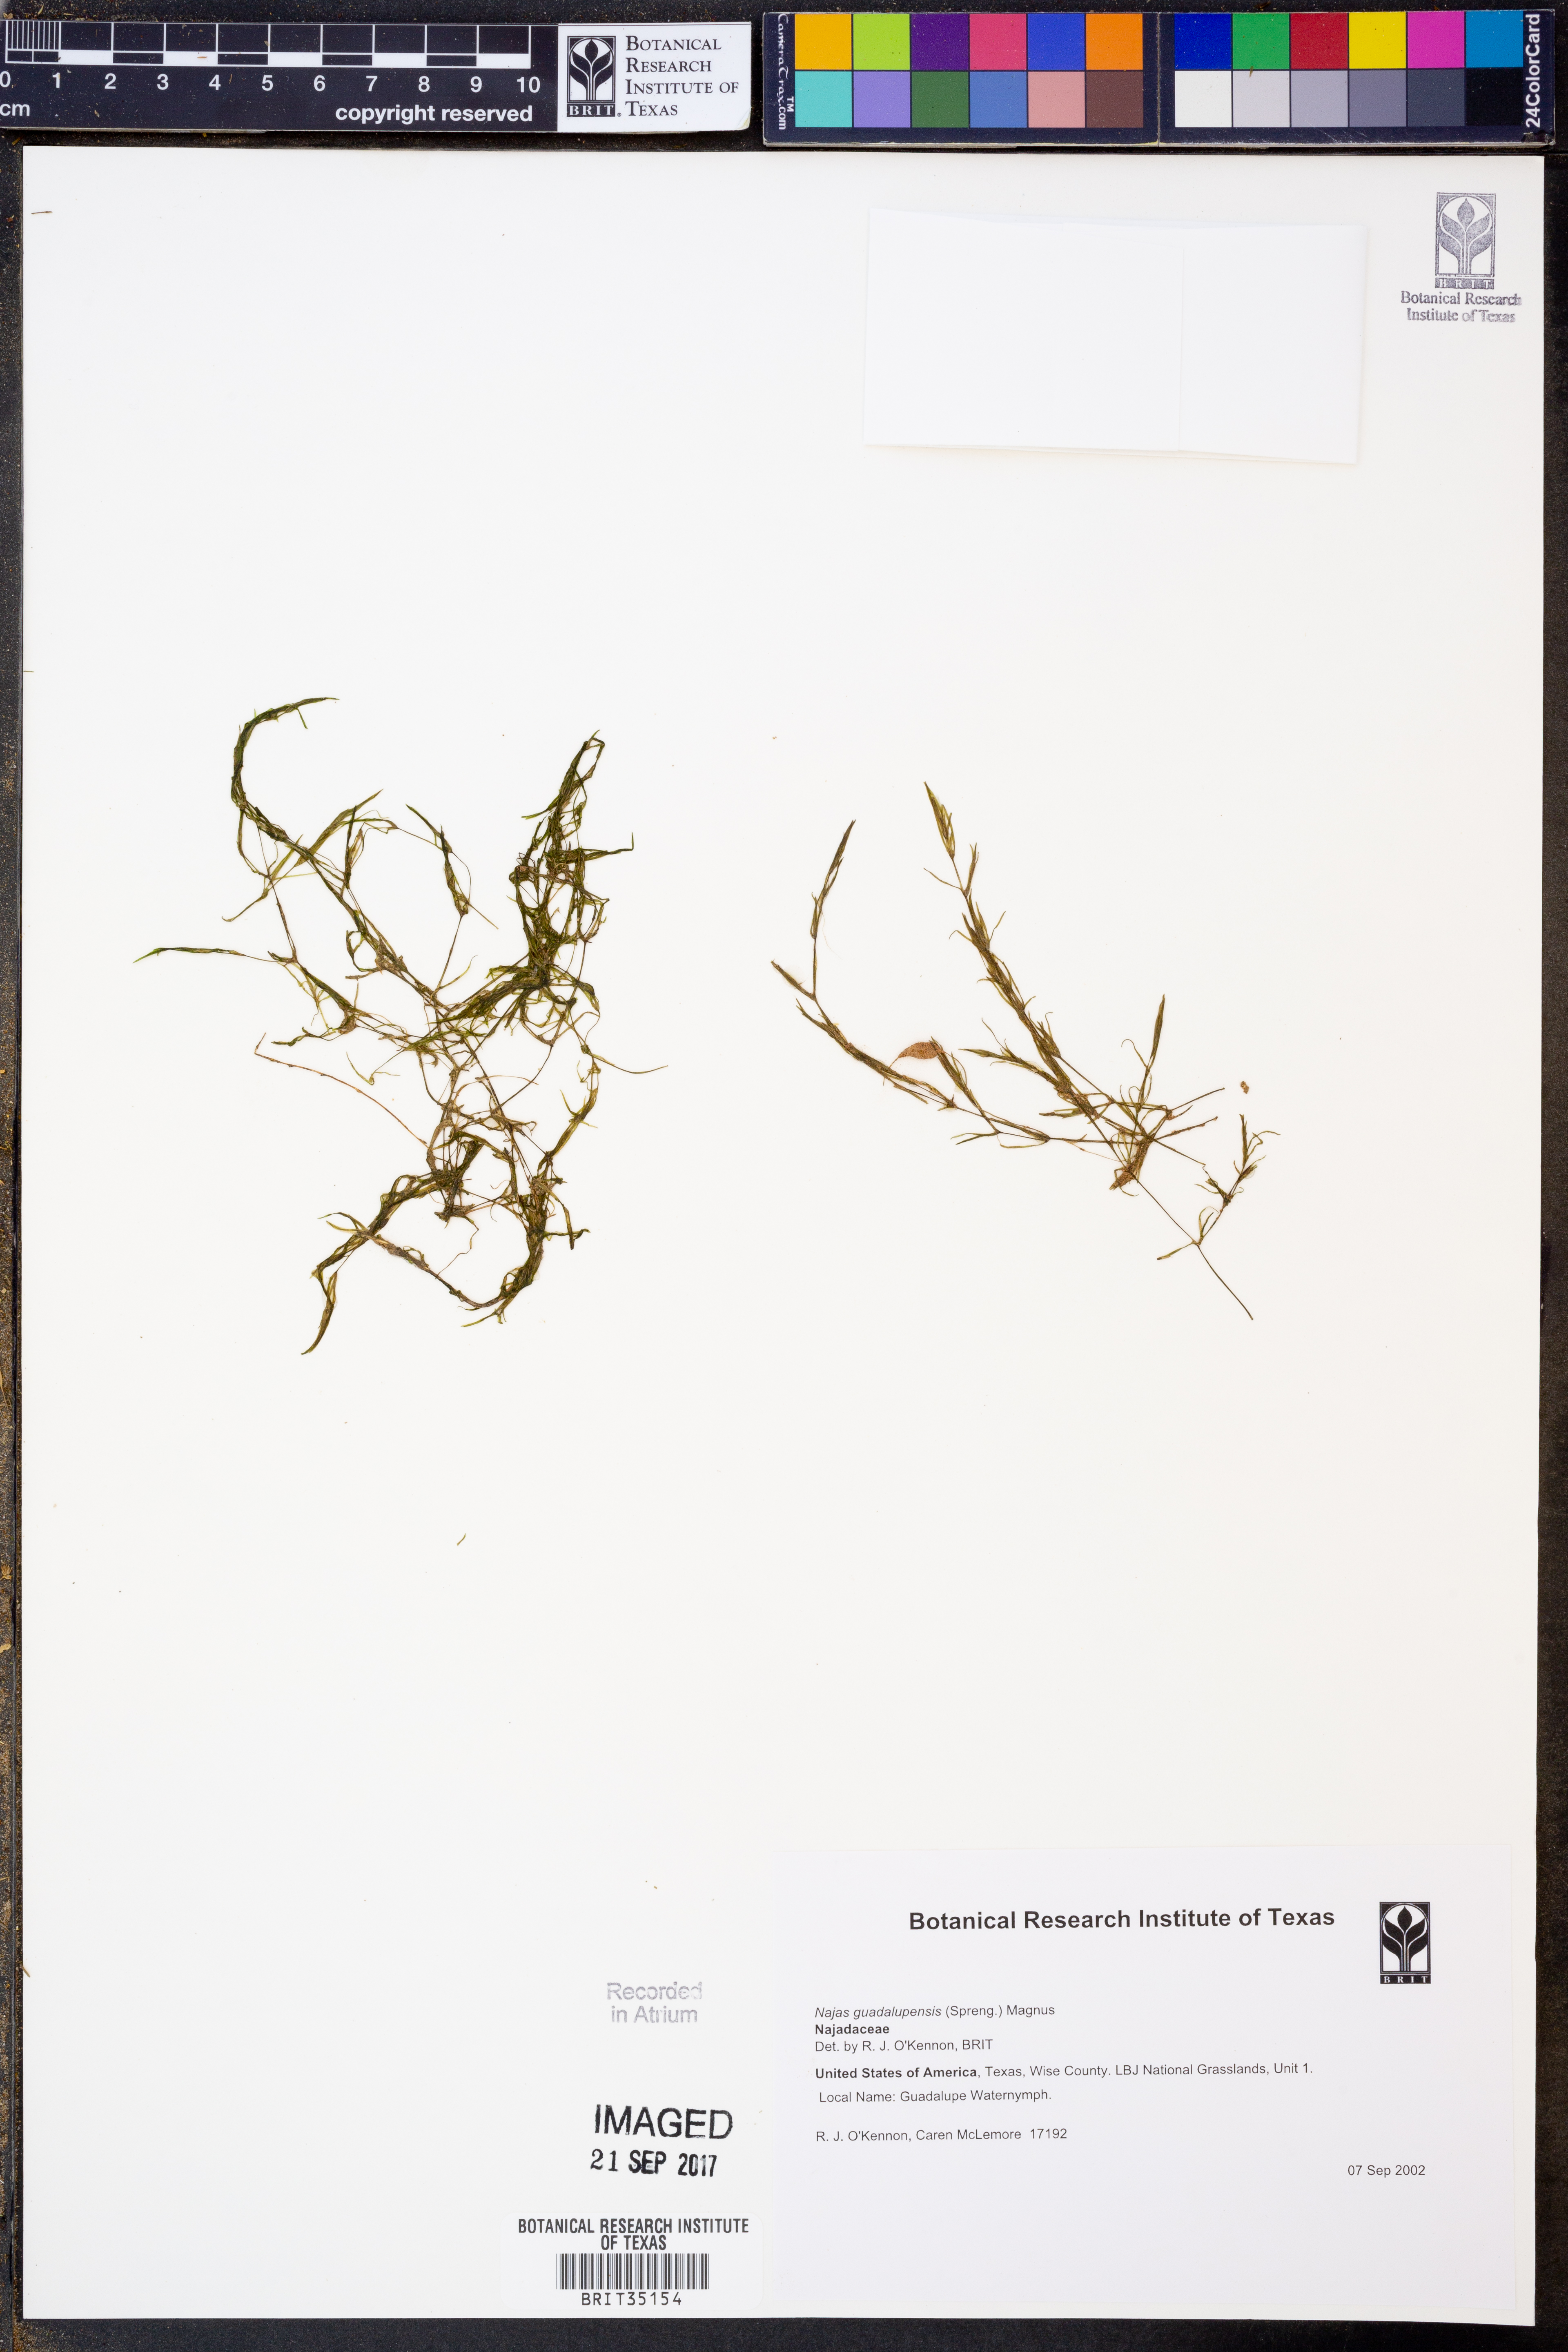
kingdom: Plantae
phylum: Tracheophyta
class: Liliopsida
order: Alismatales
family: Hydrocharitaceae
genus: Najas
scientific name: Najas guadalupensis
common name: Southern naiad
